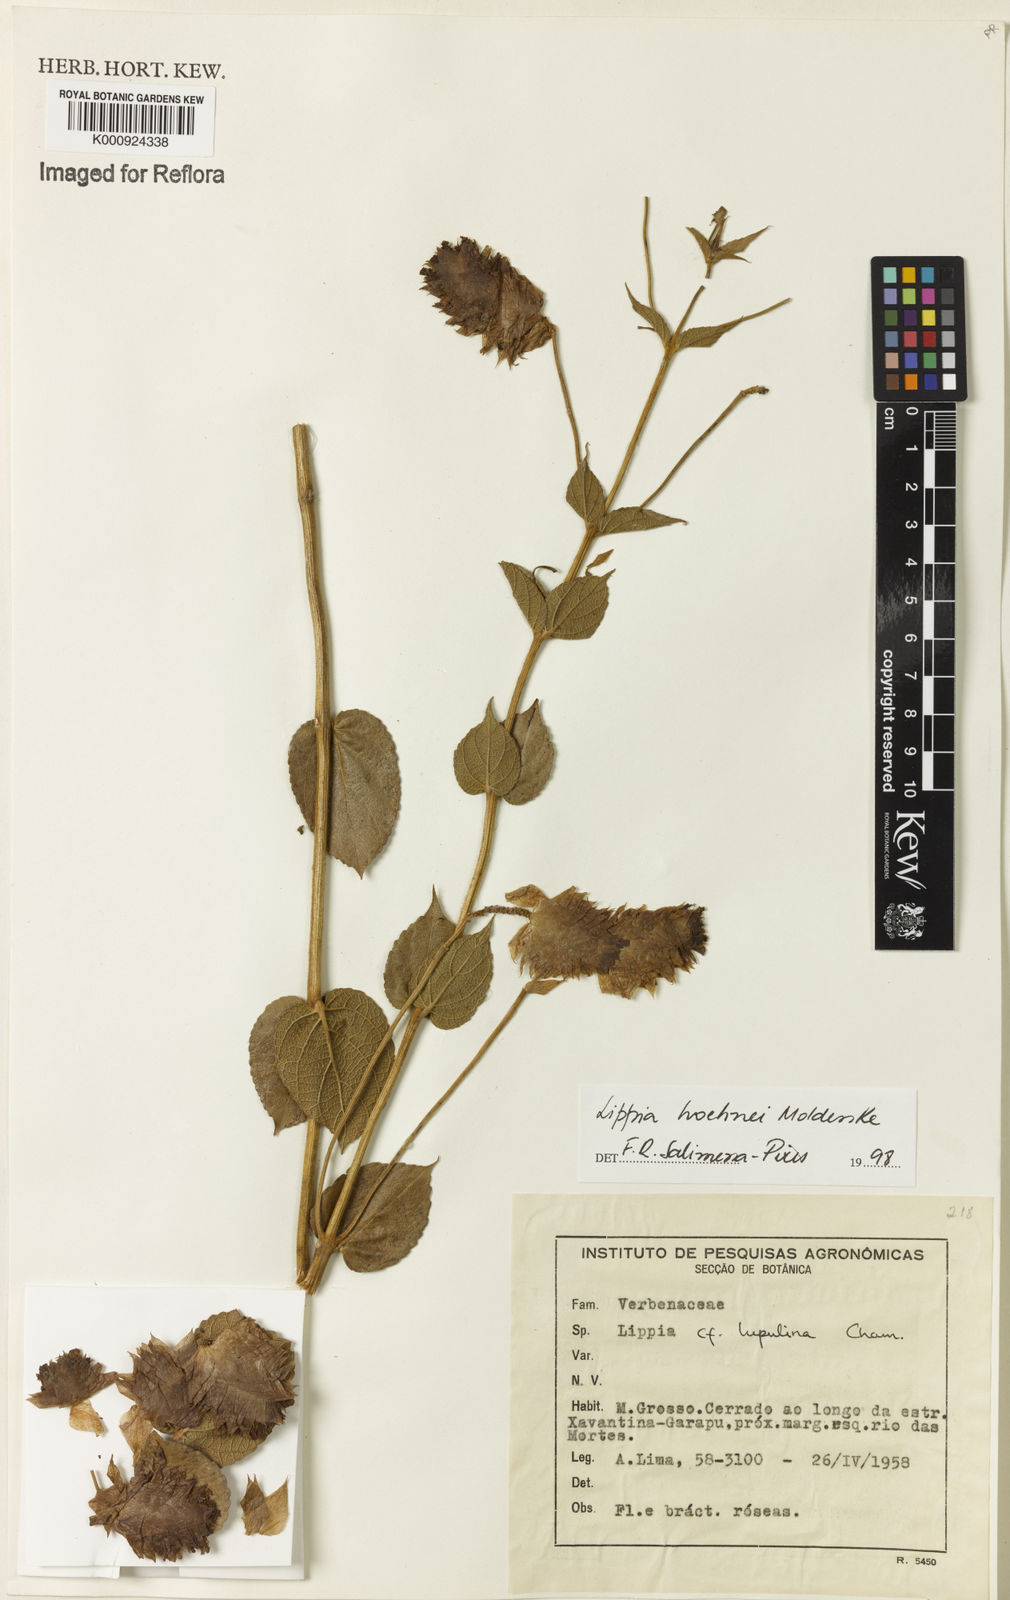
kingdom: Plantae
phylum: Tracheophyta
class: Magnoliopsida
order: Lamiales
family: Verbenaceae
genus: Lippia
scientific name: Lippia hoehnei
